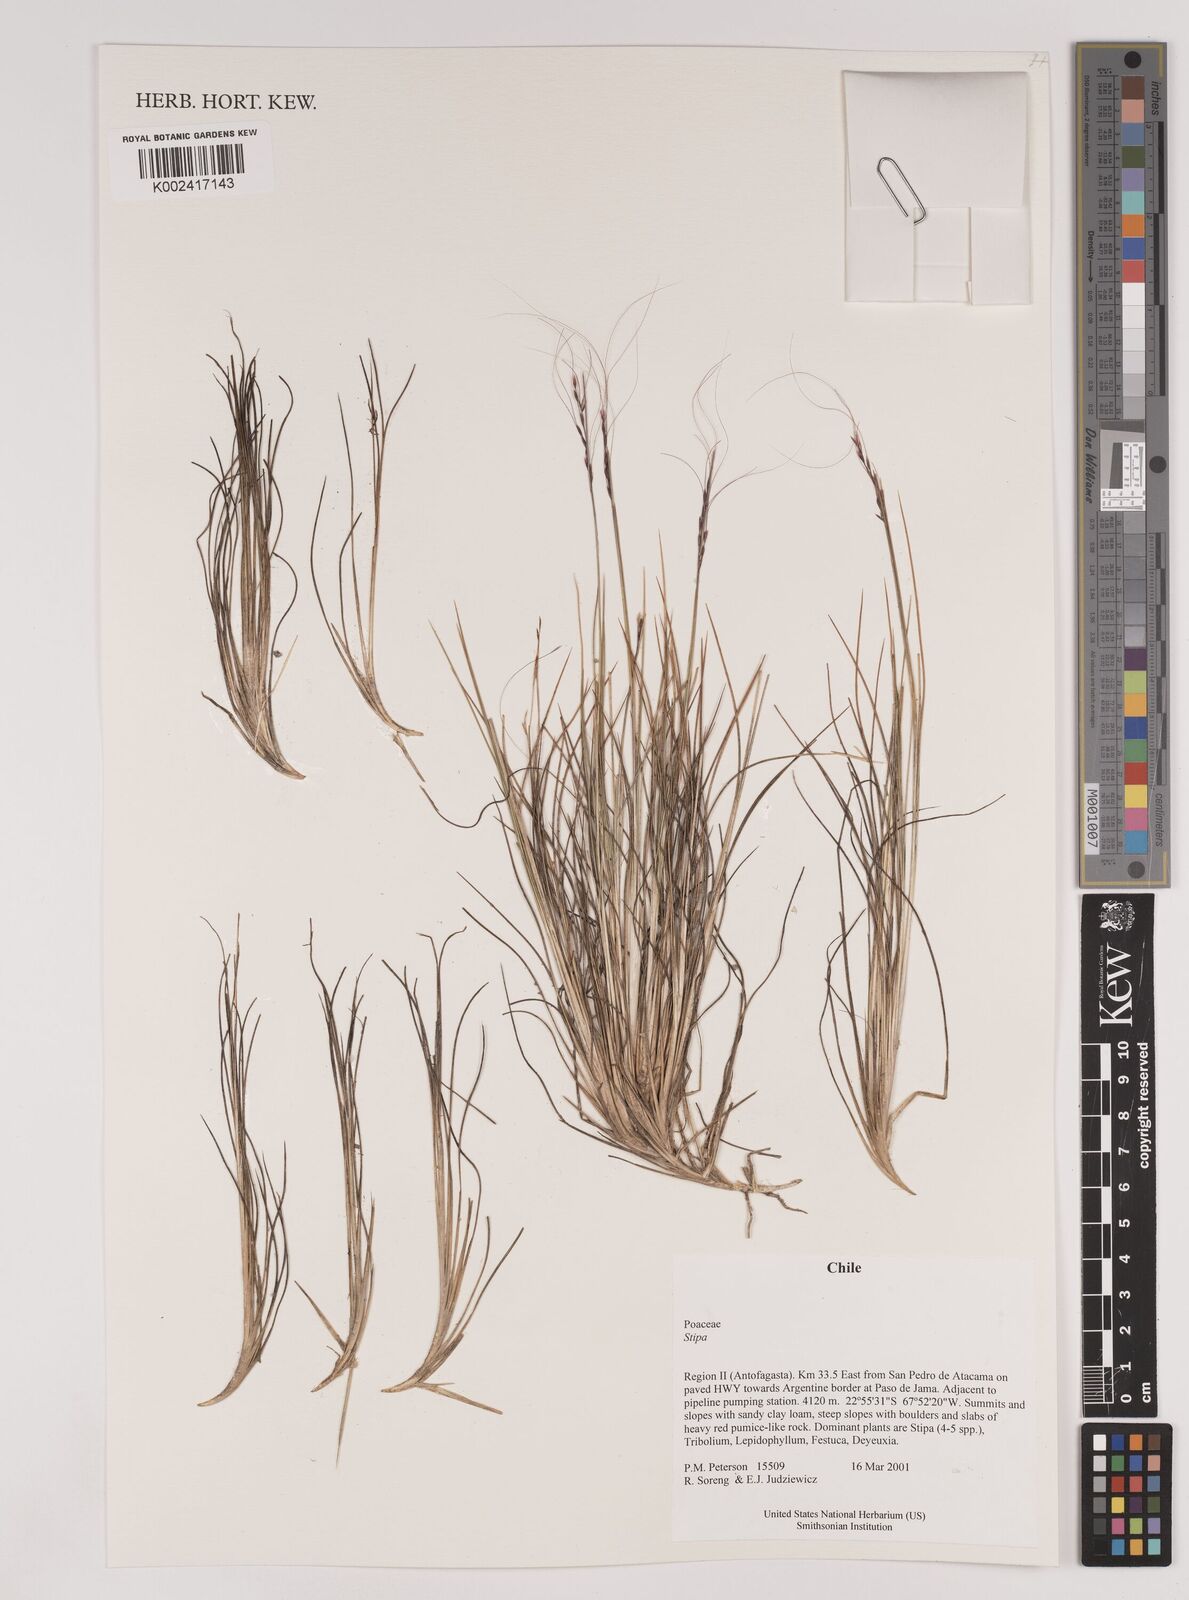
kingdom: Plantae
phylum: Tracheophyta
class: Liliopsida
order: Poales
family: Poaceae
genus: Stipa
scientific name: Stipa
